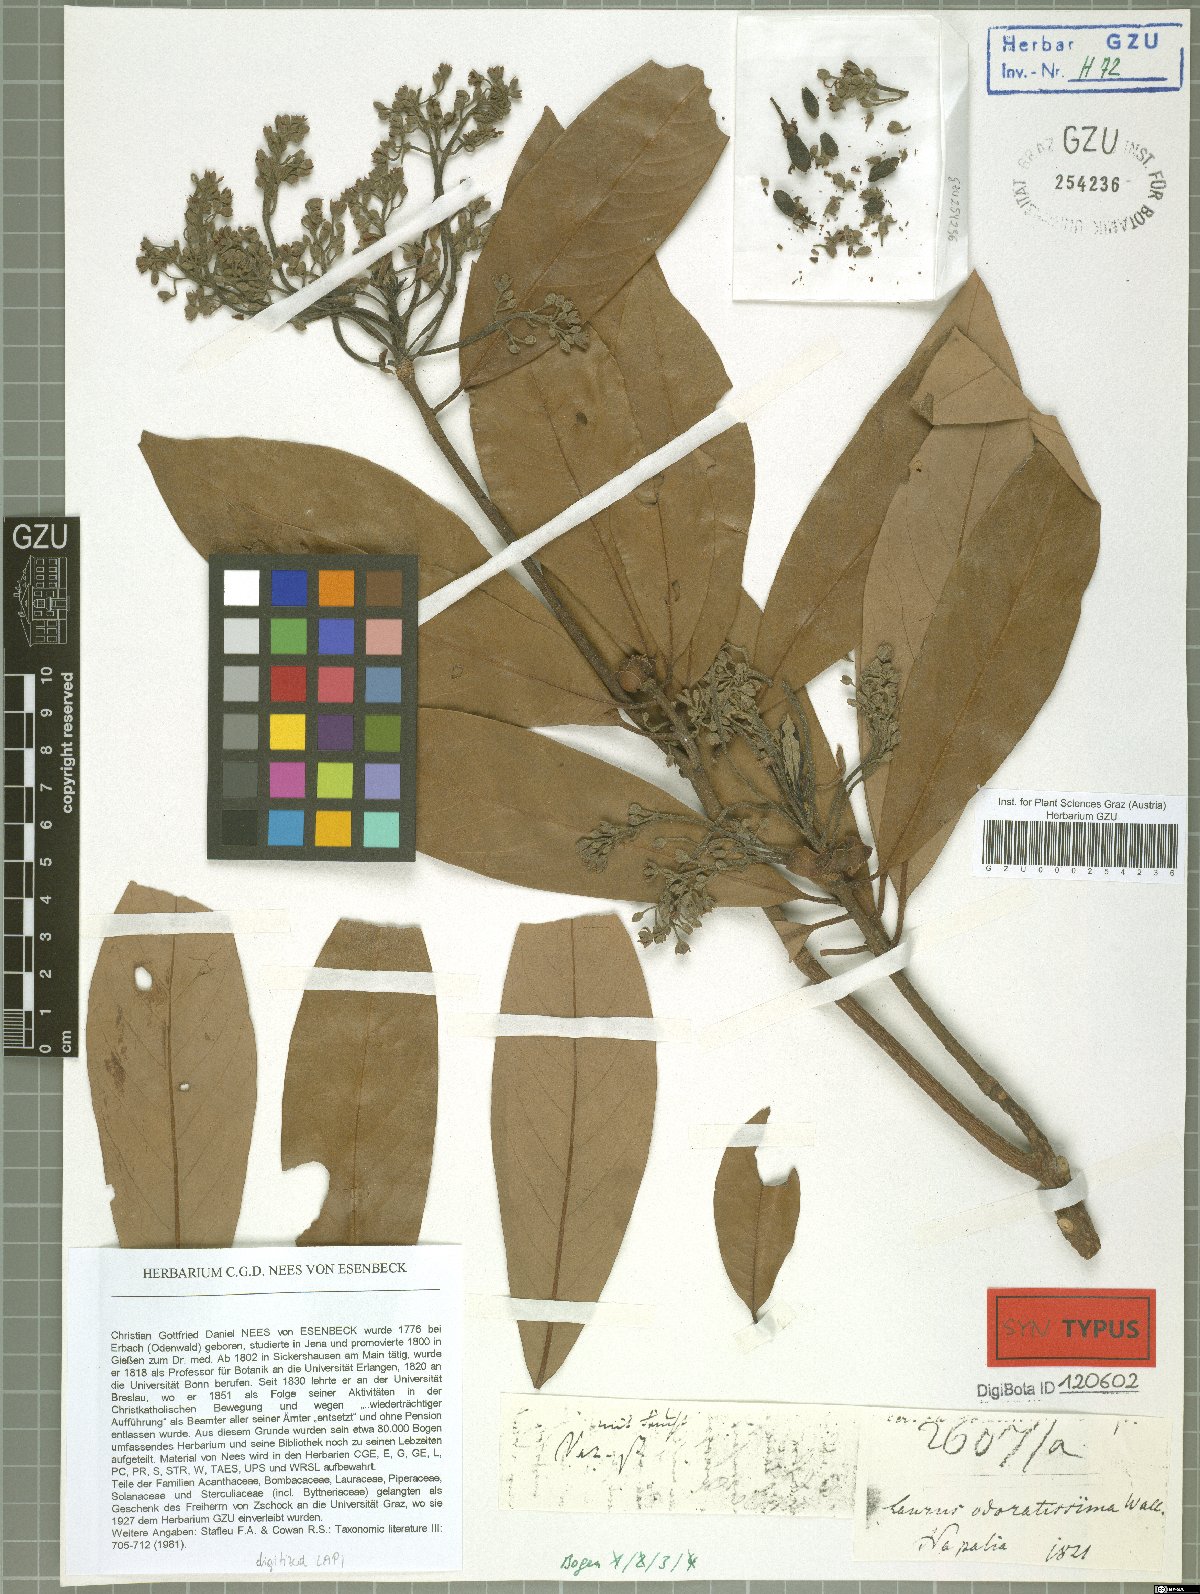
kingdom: Plantae
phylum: Tracheophyta
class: Magnoliopsida
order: Laurales
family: Lauraceae
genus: Machilus
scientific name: Machilus odoratissimus
